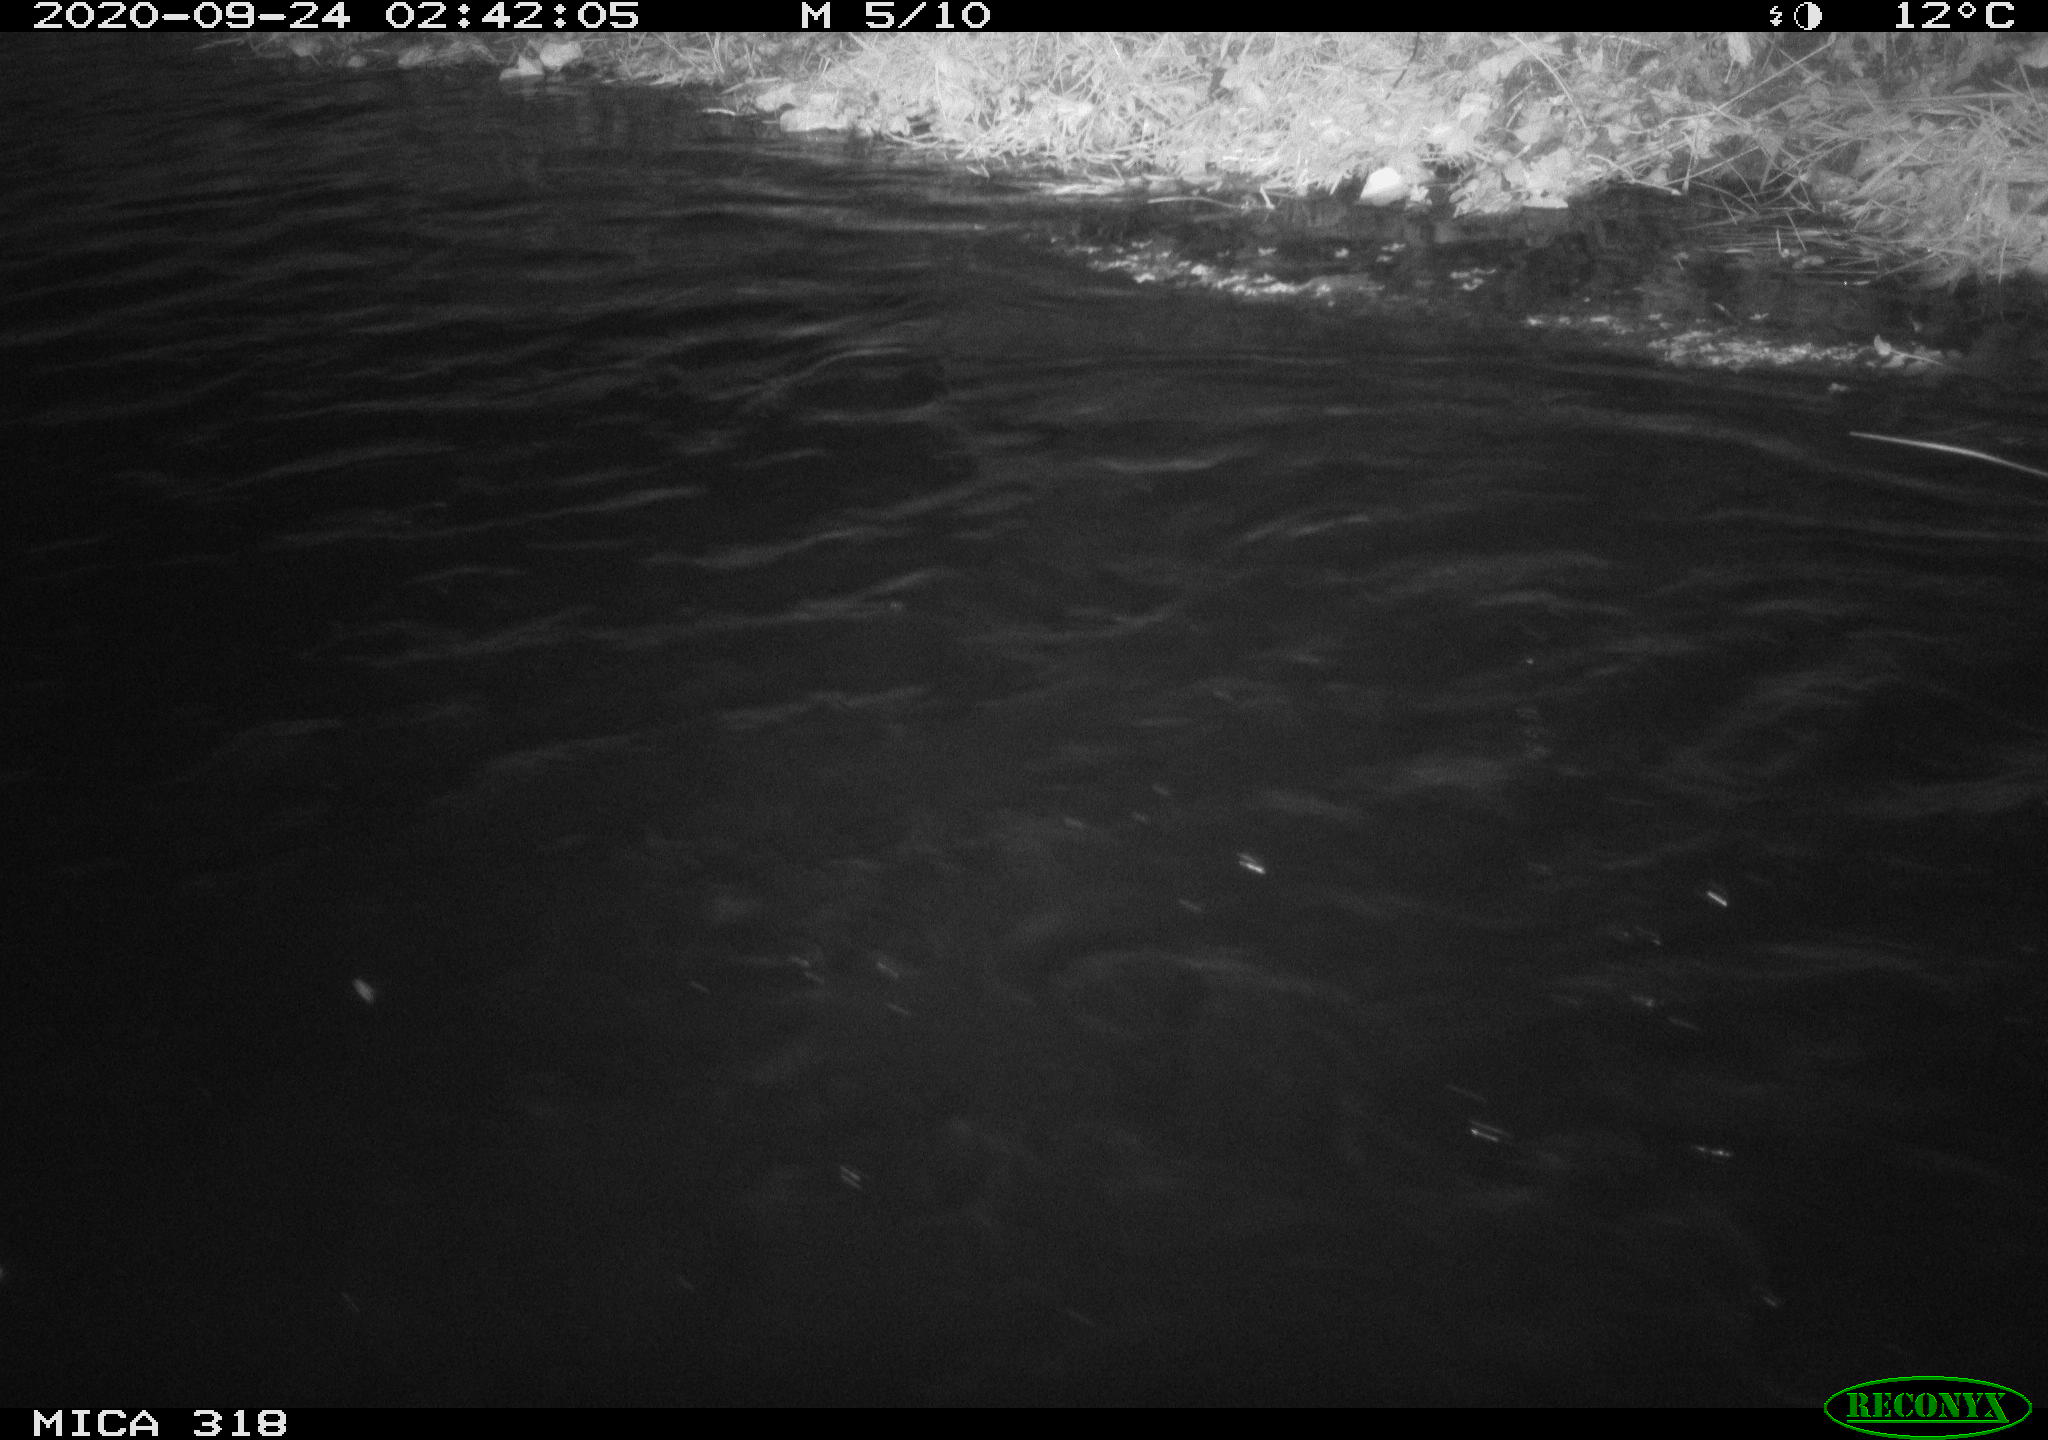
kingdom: Animalia
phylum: Chordata
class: Aves
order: Anseriformes
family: Anatidae
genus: Anas
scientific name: Anas platyrhynchos
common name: Mallard
